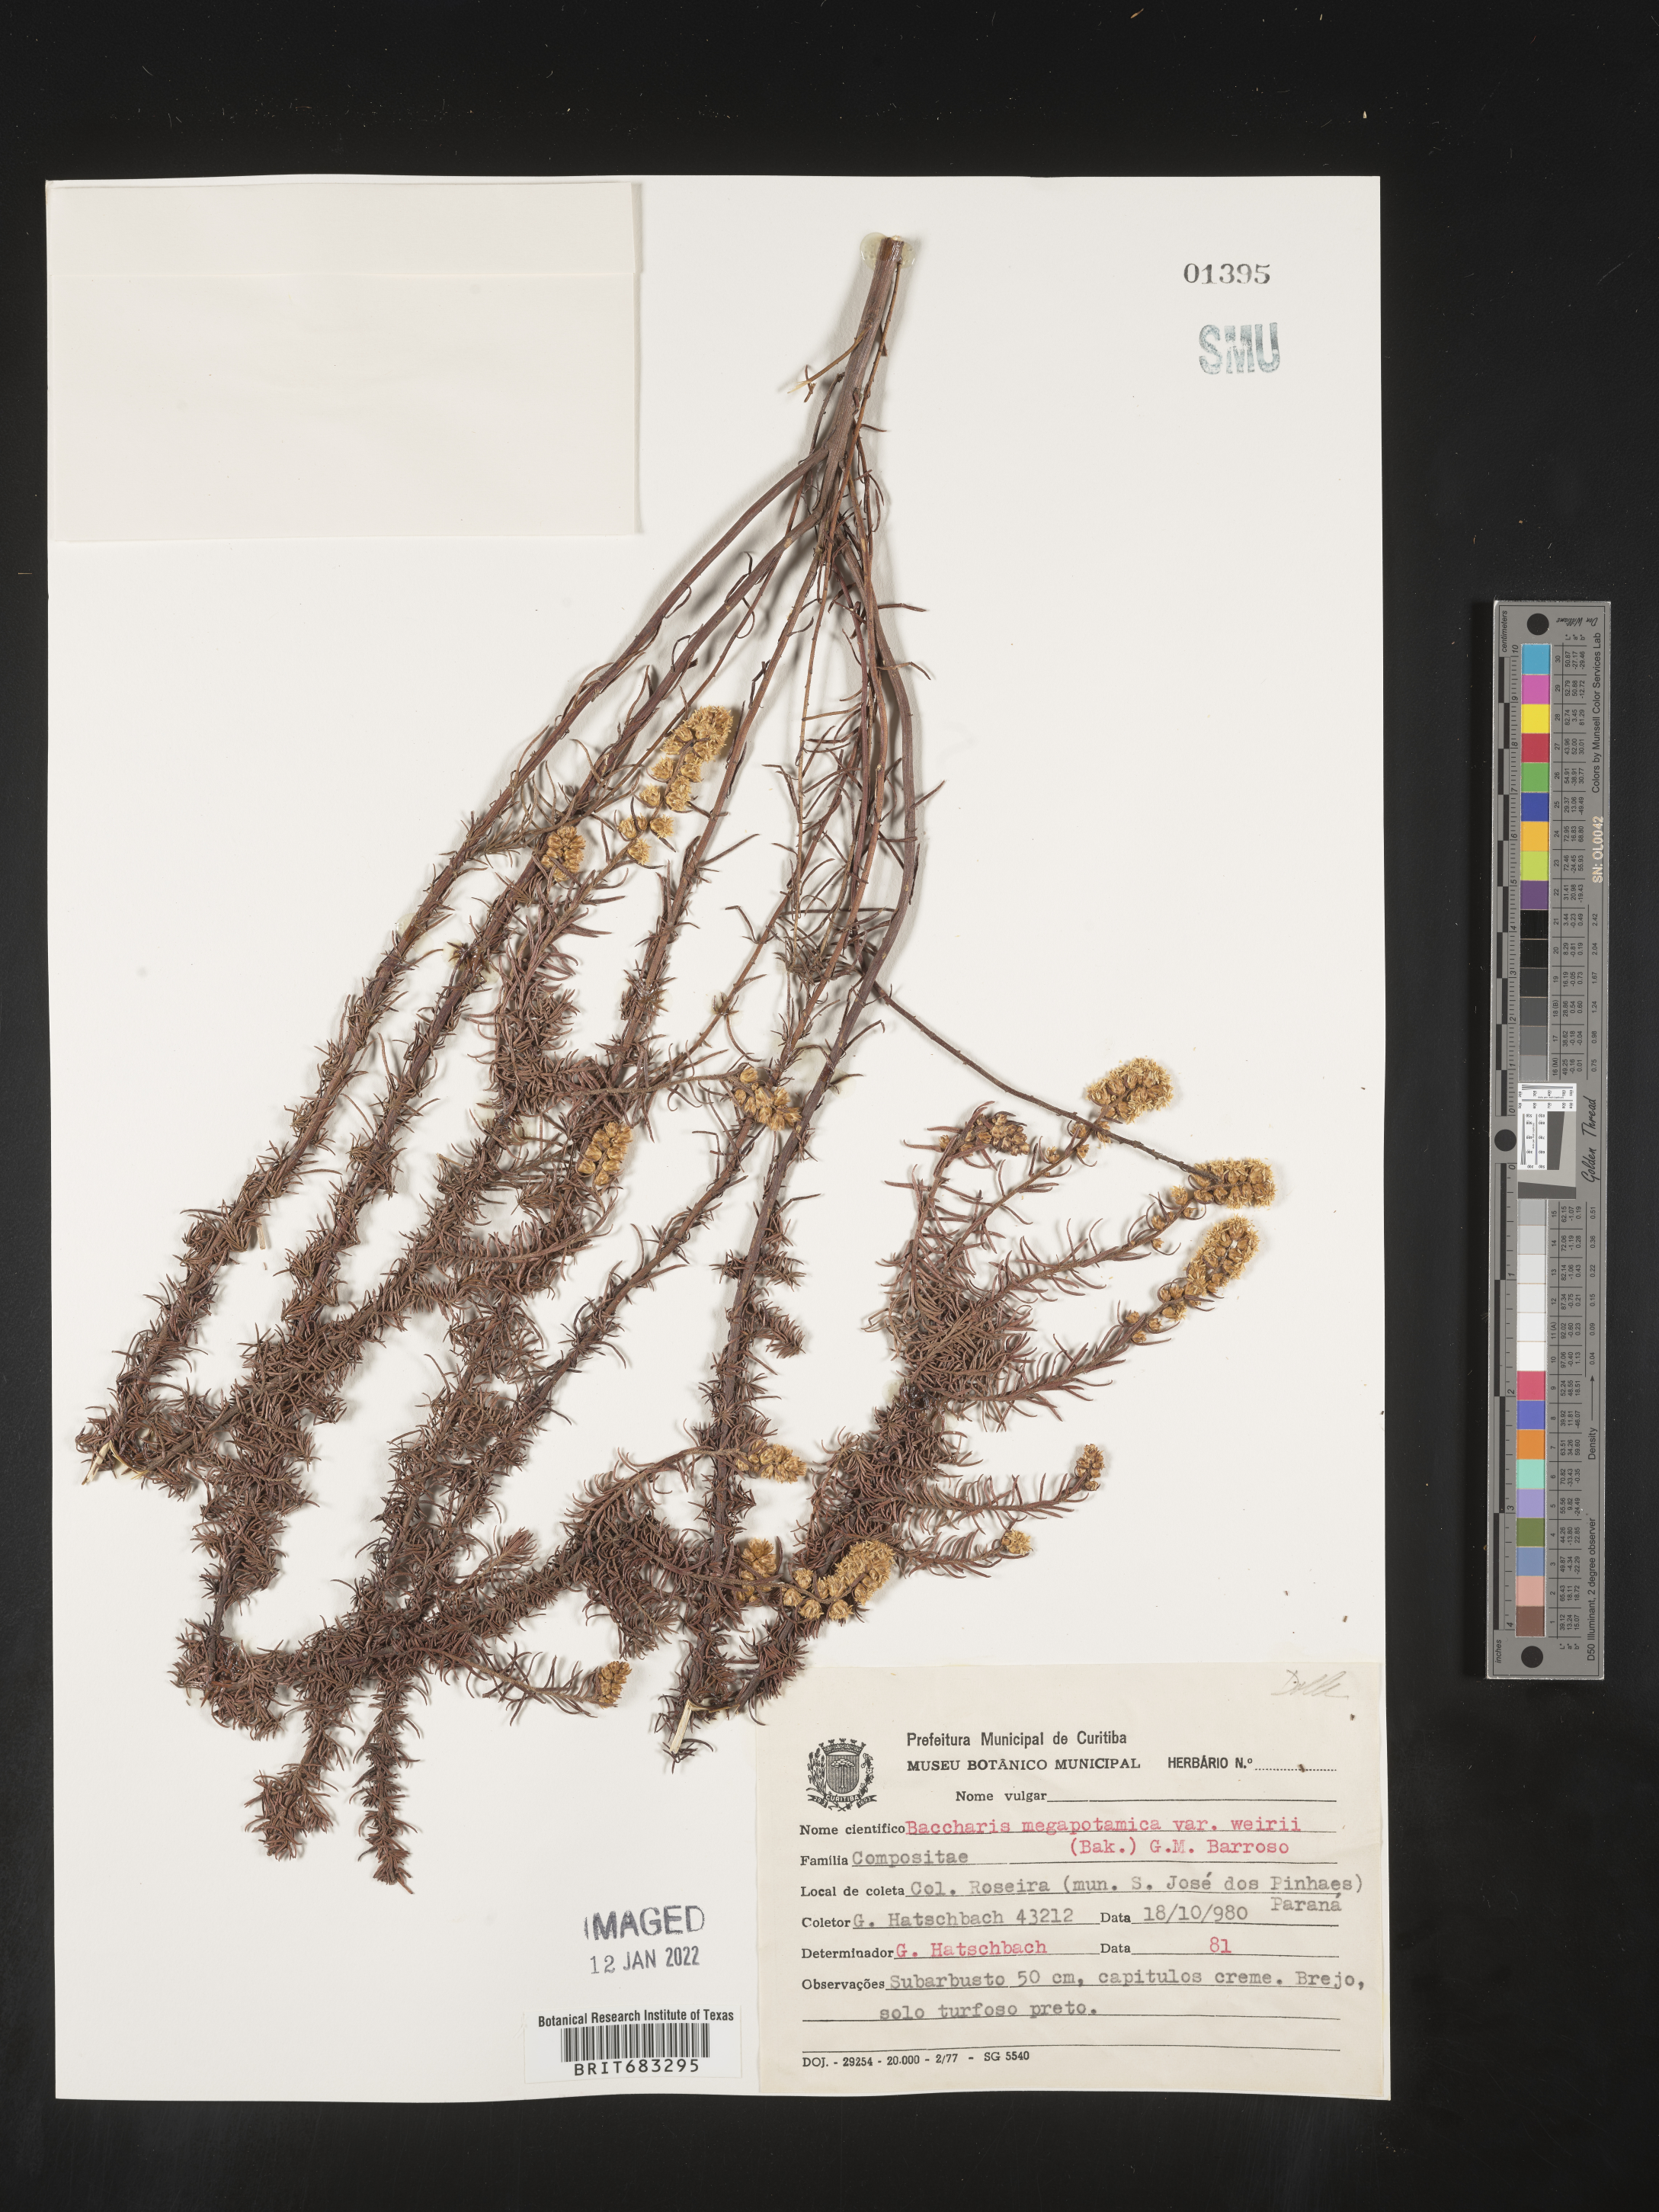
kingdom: Plantae
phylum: Tracheophyta
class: Magnoliopsida
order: Asterales
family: Asteraceae
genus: Baccharis
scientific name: Baccharis
